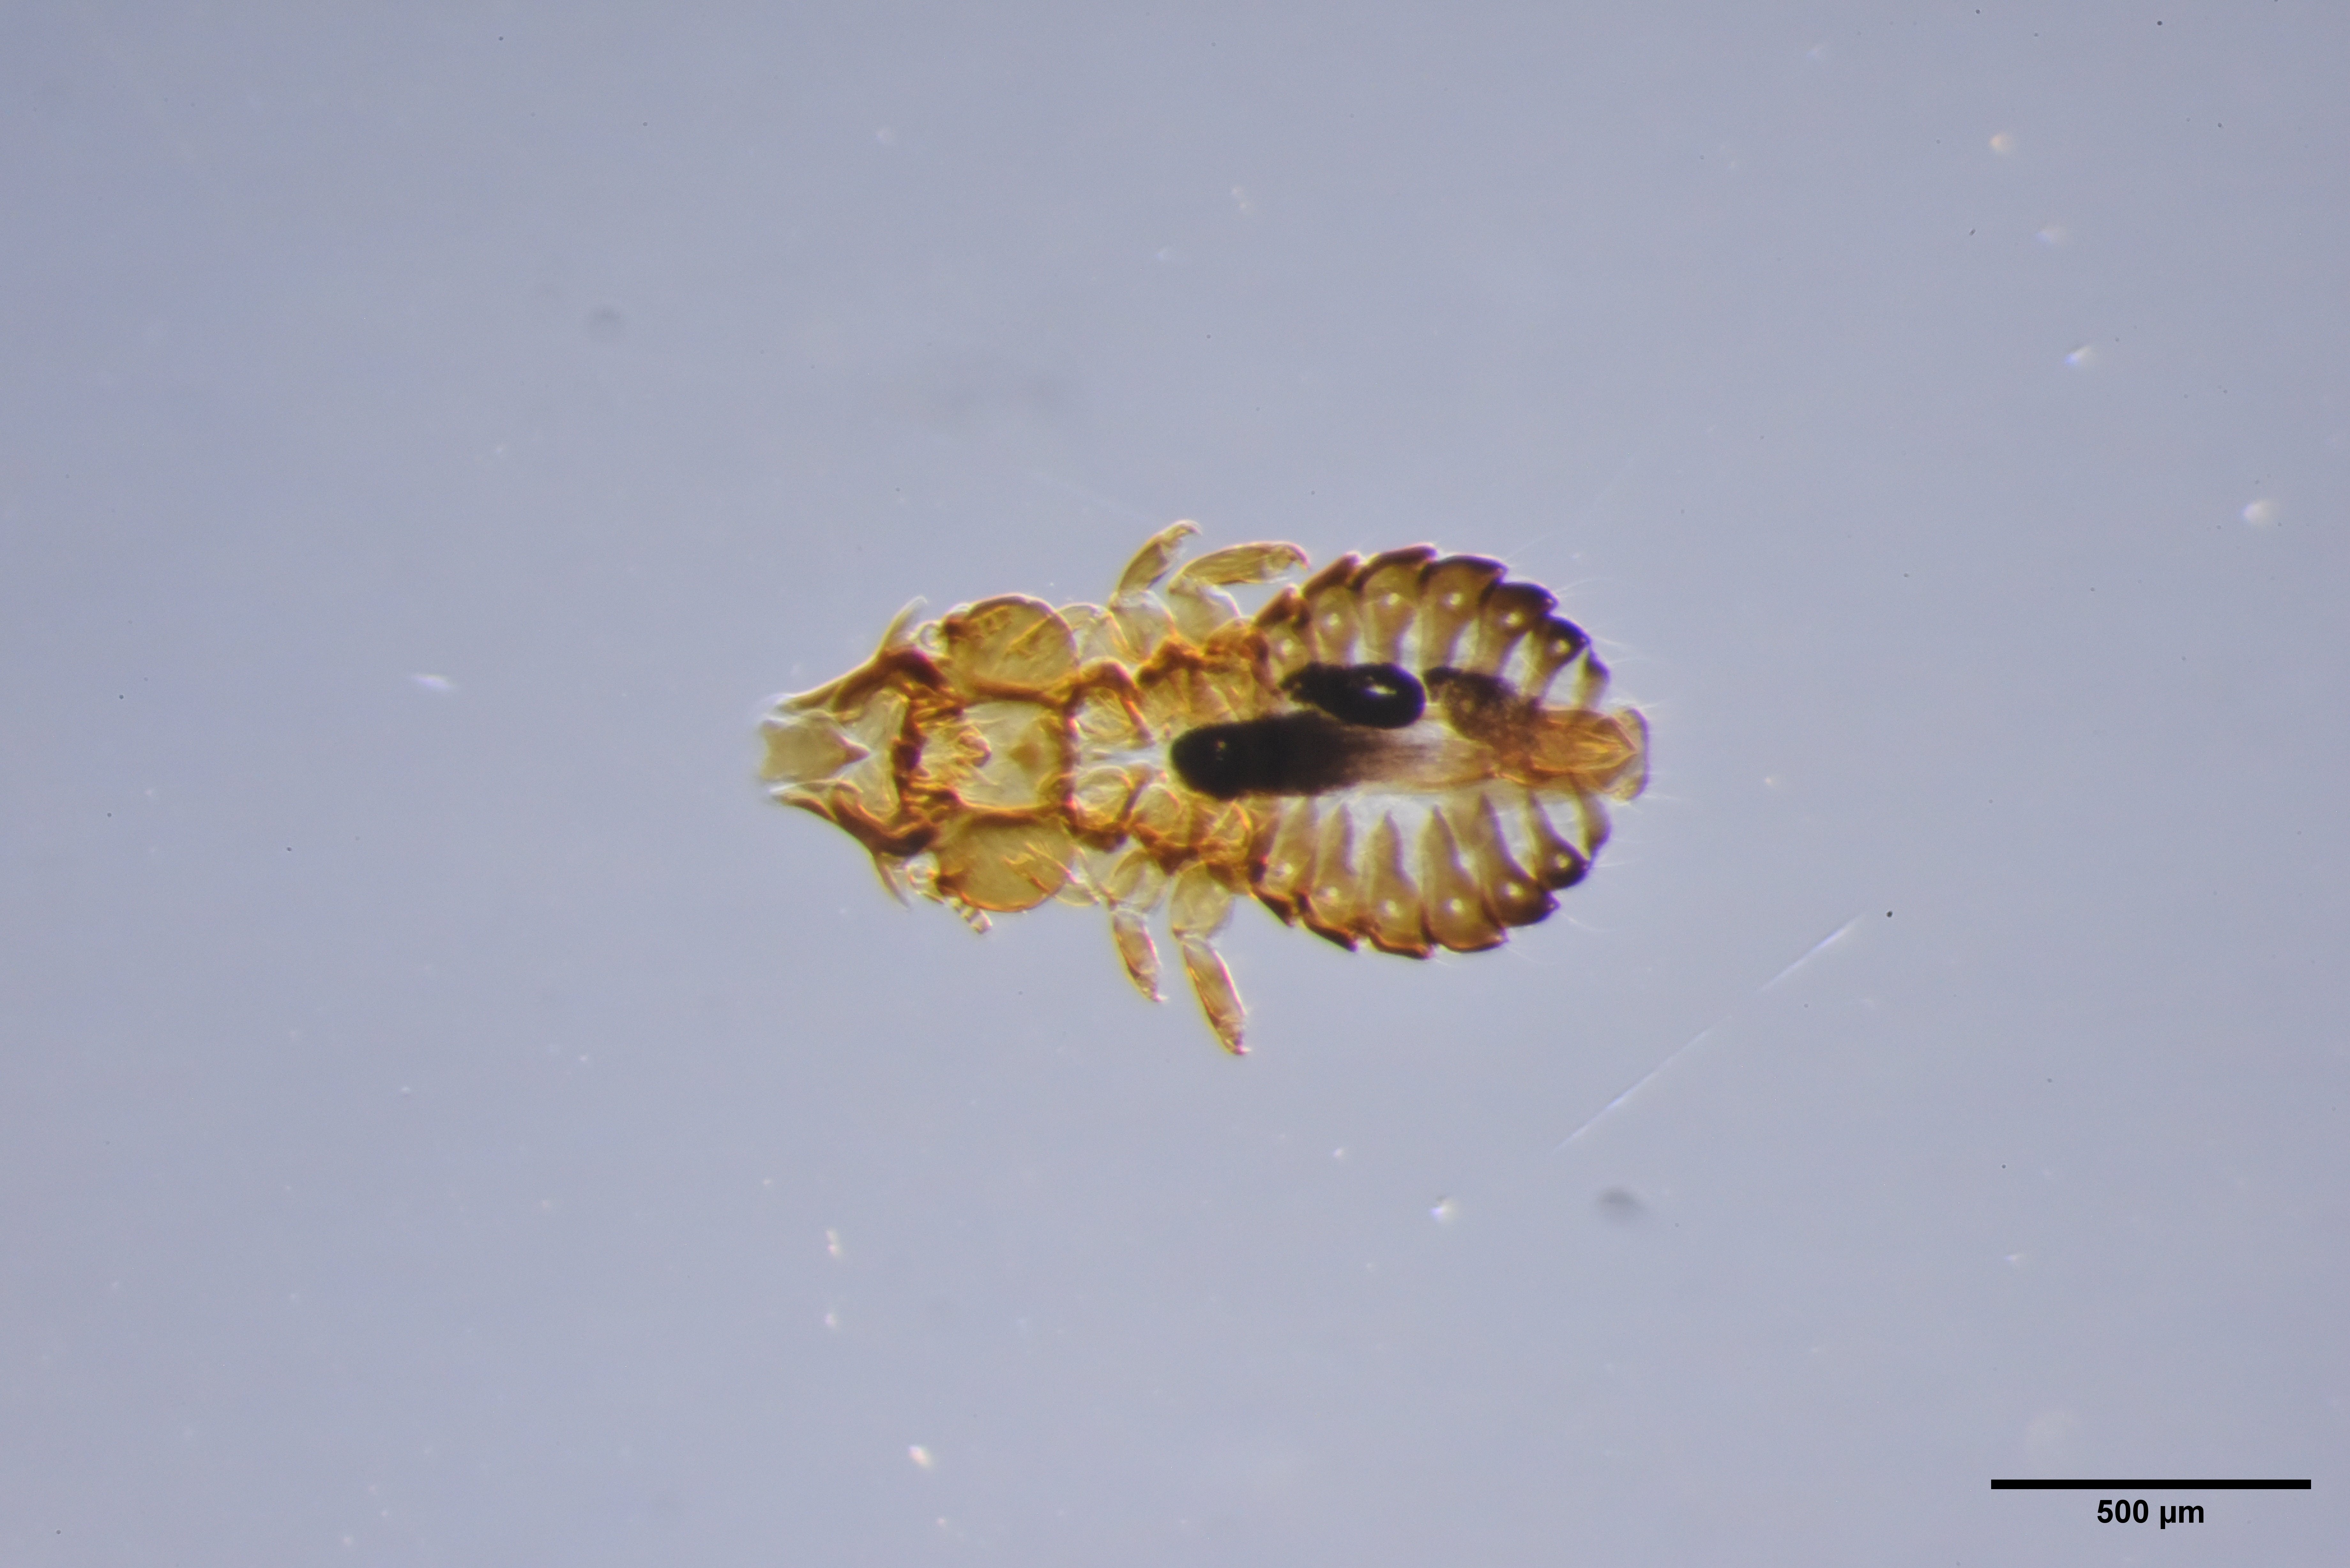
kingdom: Animalia
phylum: Arthropoda
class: Insecta
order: Psocodea
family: Philopteridae
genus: Saemundssonia
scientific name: Saemundssonia fraterculae
